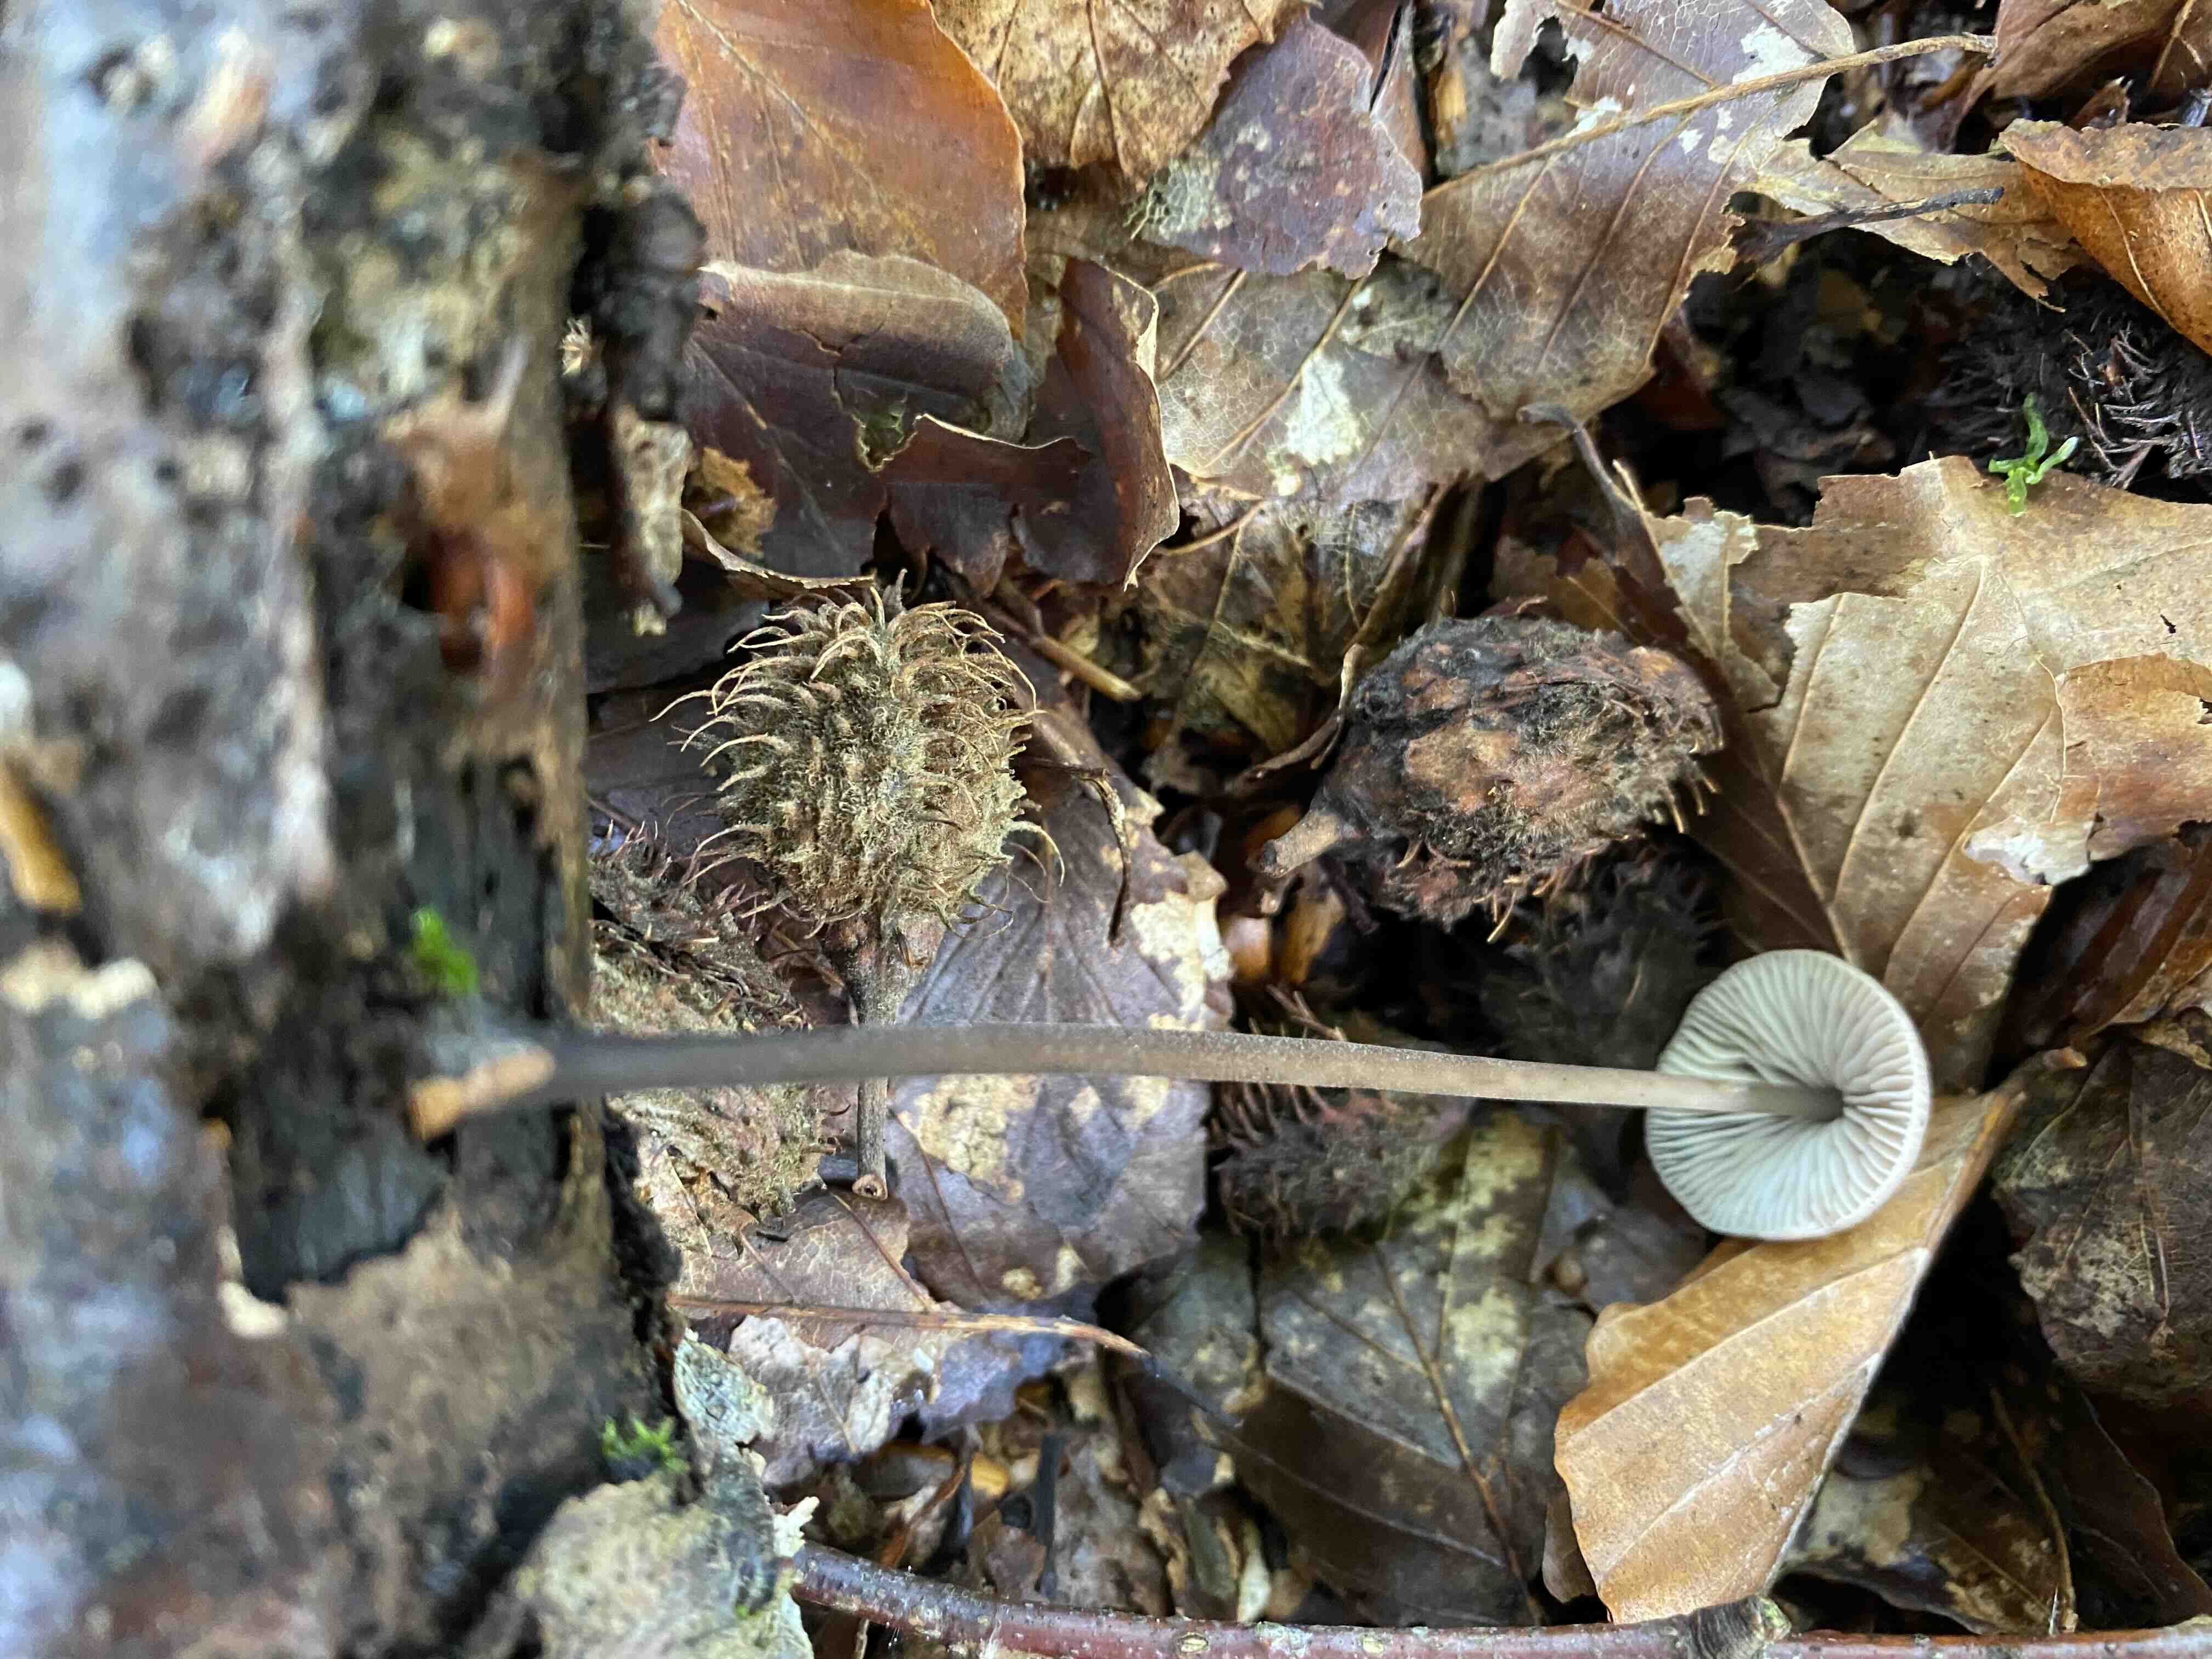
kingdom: Fungi
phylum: Basidiomycota
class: Agaricomycetes
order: Agaricales
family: Omphalotaceae
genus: Mycetinis
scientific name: Mycetinis alliaceus
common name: stor løghat
